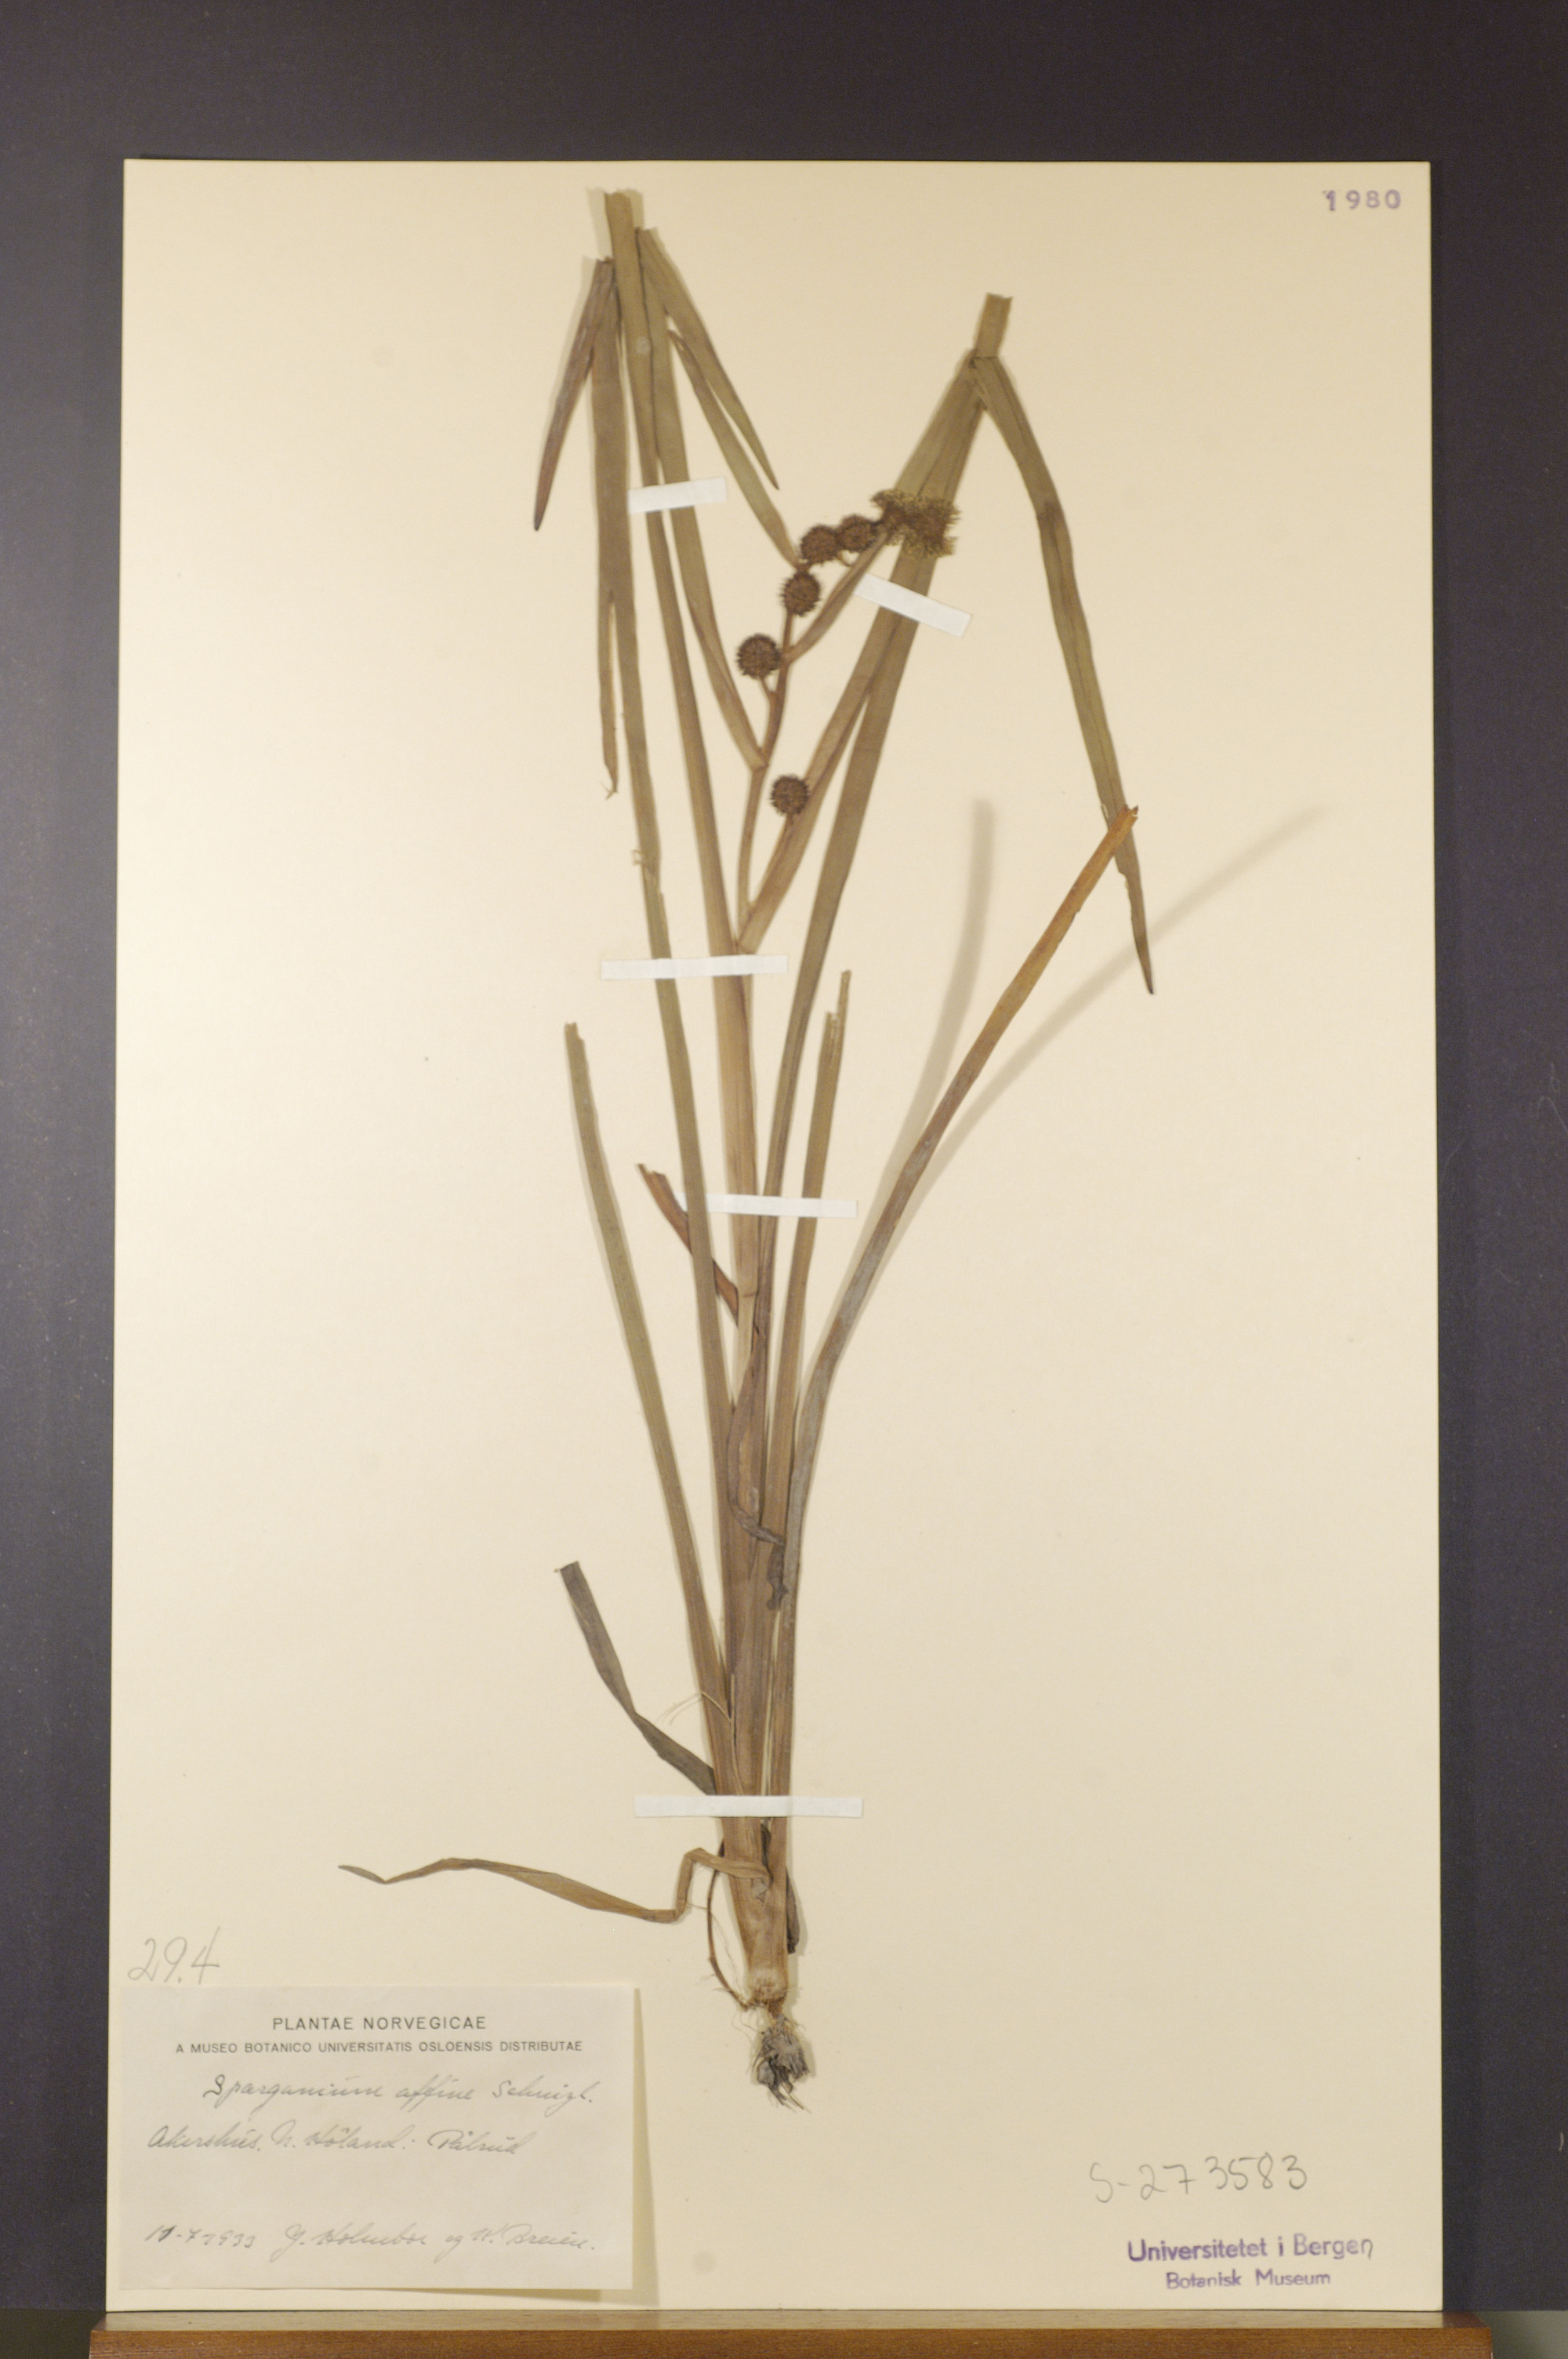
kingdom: Plantae
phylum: Tracheophyta
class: Liliopsida
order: Poales
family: Typhaceae
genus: Sparganium
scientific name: Sparganium angustifolium
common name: Floating bur-reed
